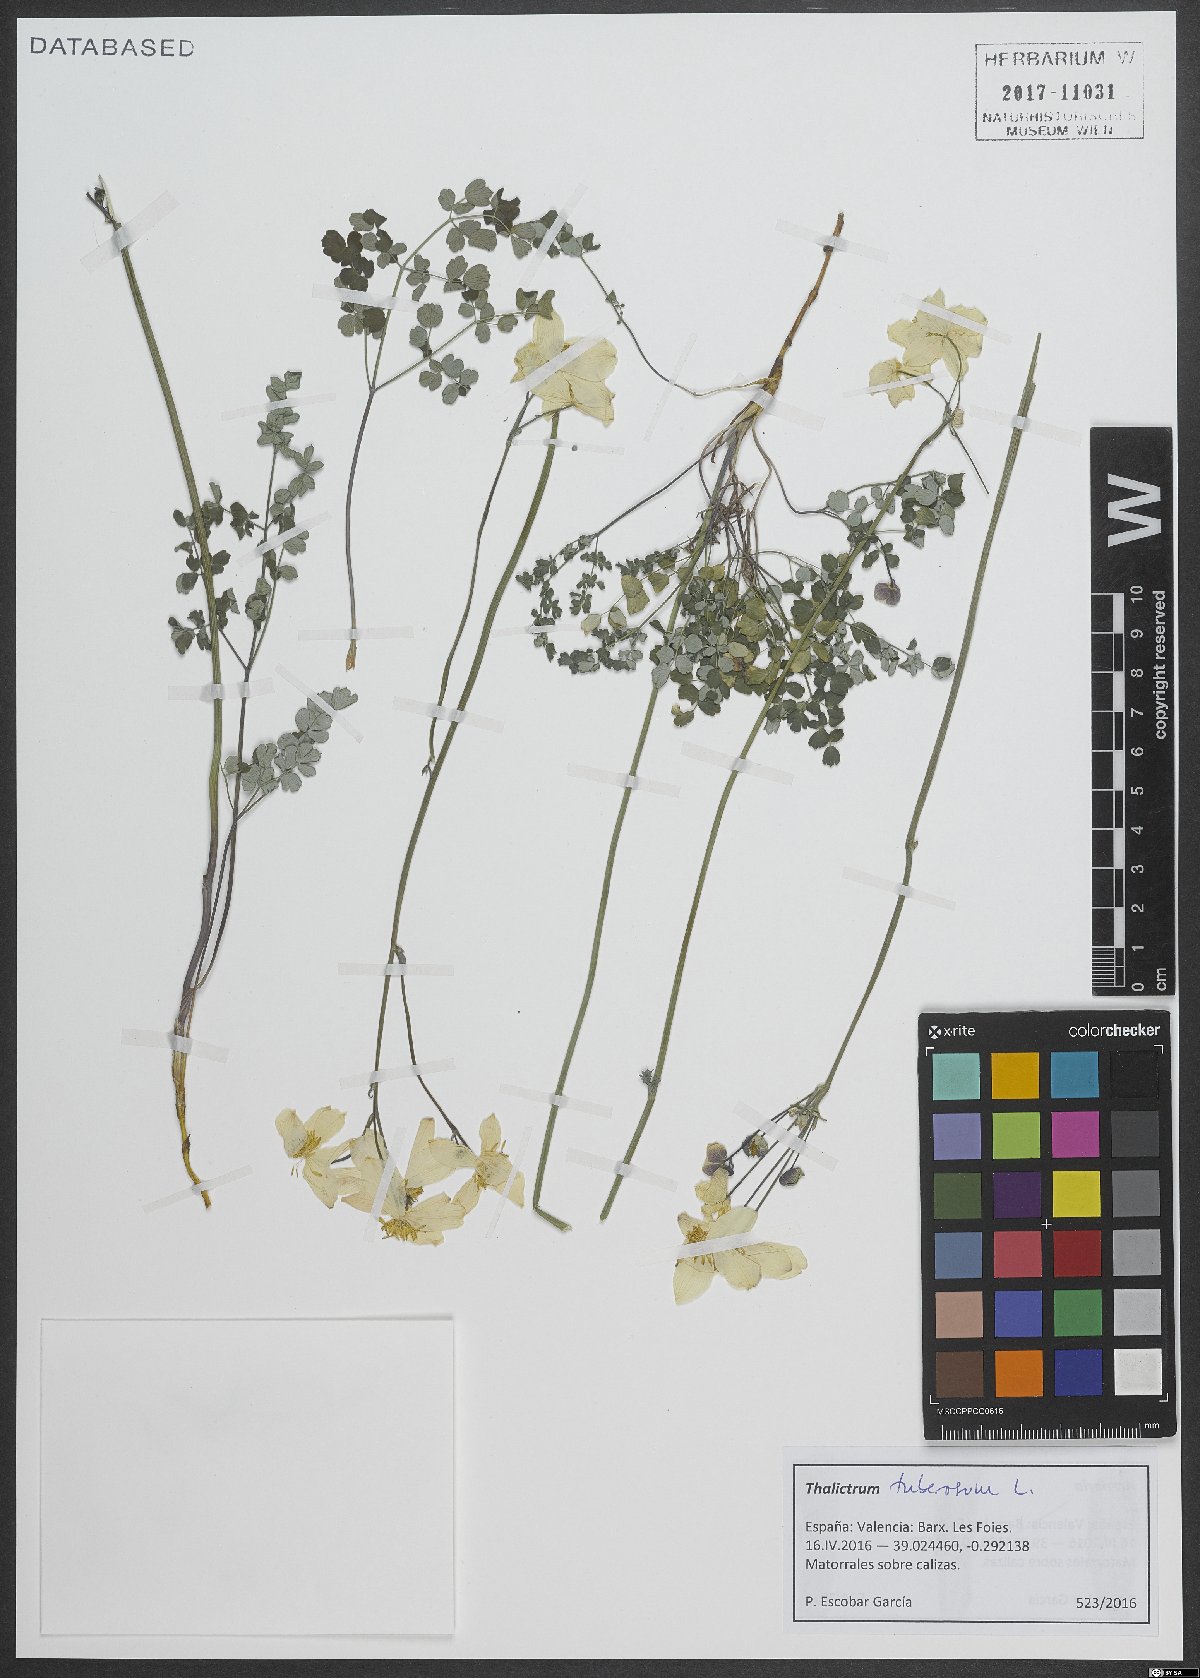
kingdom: Plantae
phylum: Tracheophyta
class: Magnoliopsida
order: Ranunculales
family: Ranunculaceae
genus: Thalictrum
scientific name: Thalictrum tuberosum
